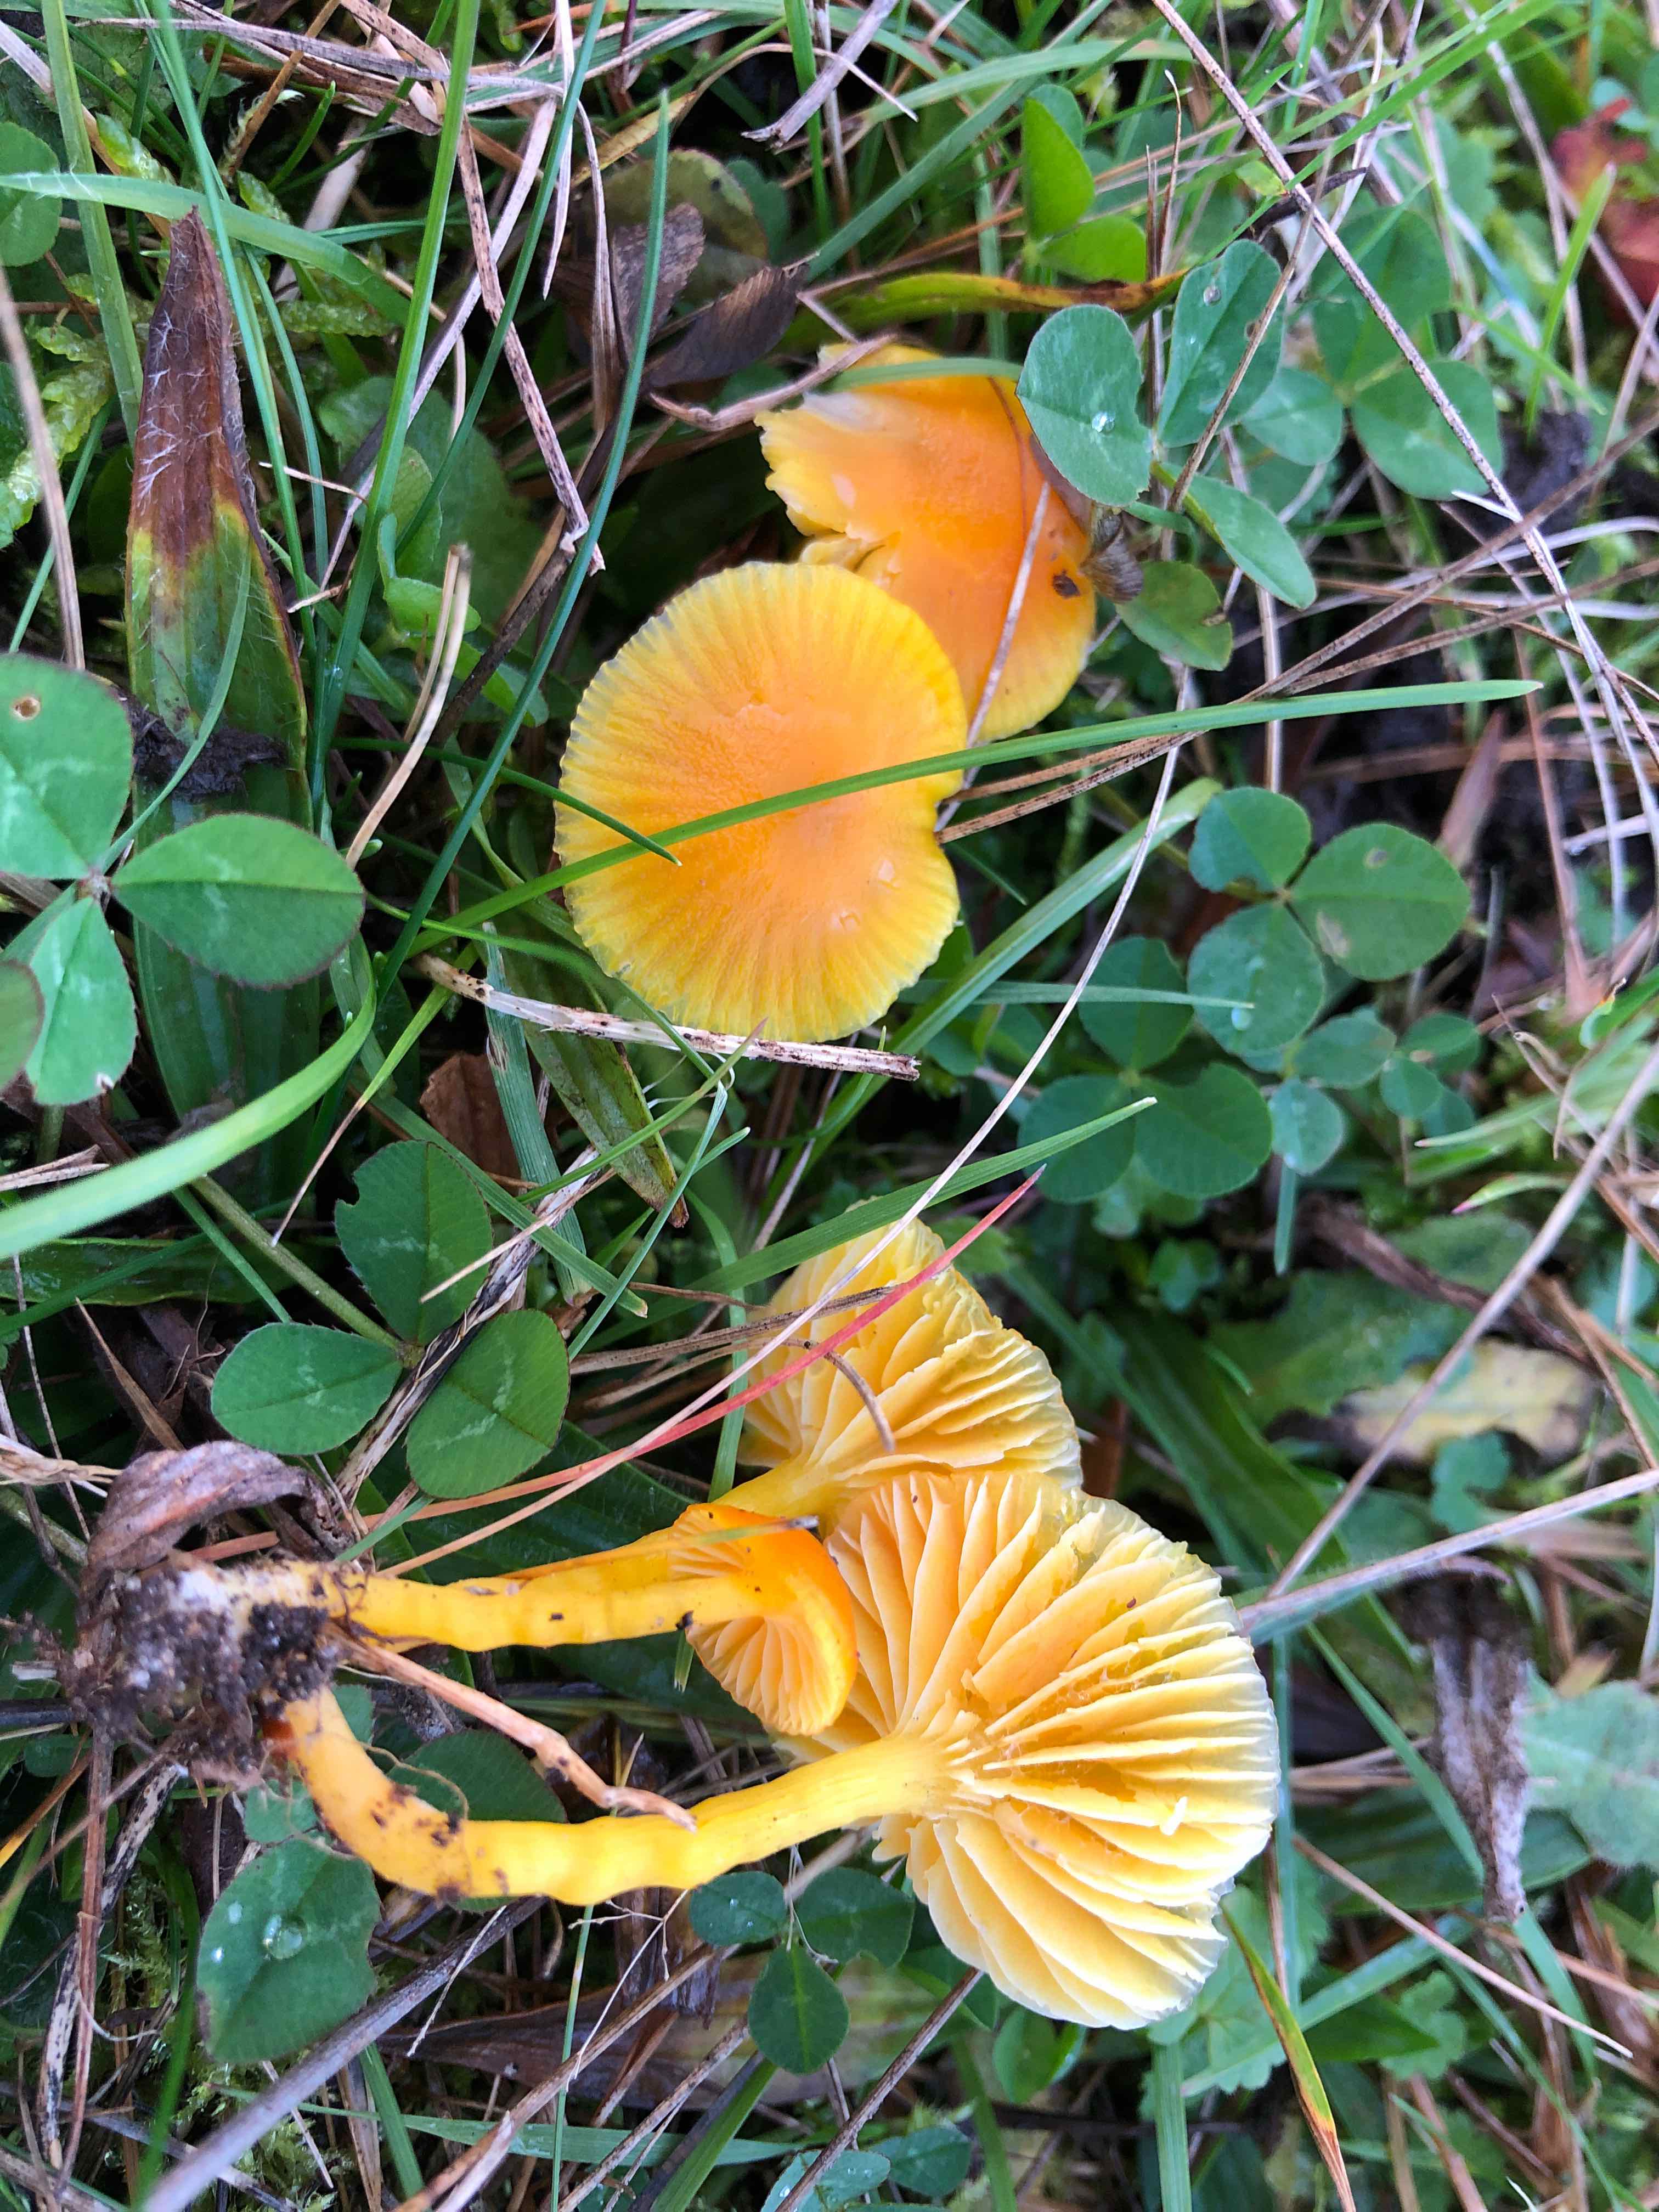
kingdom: Fungi
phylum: Basidiomycota
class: Agaricomycetes
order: Agaricales
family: Hygrophoraceae
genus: Hygrocybe
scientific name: Hygrocybe ceracea
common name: voksgul vokshat
